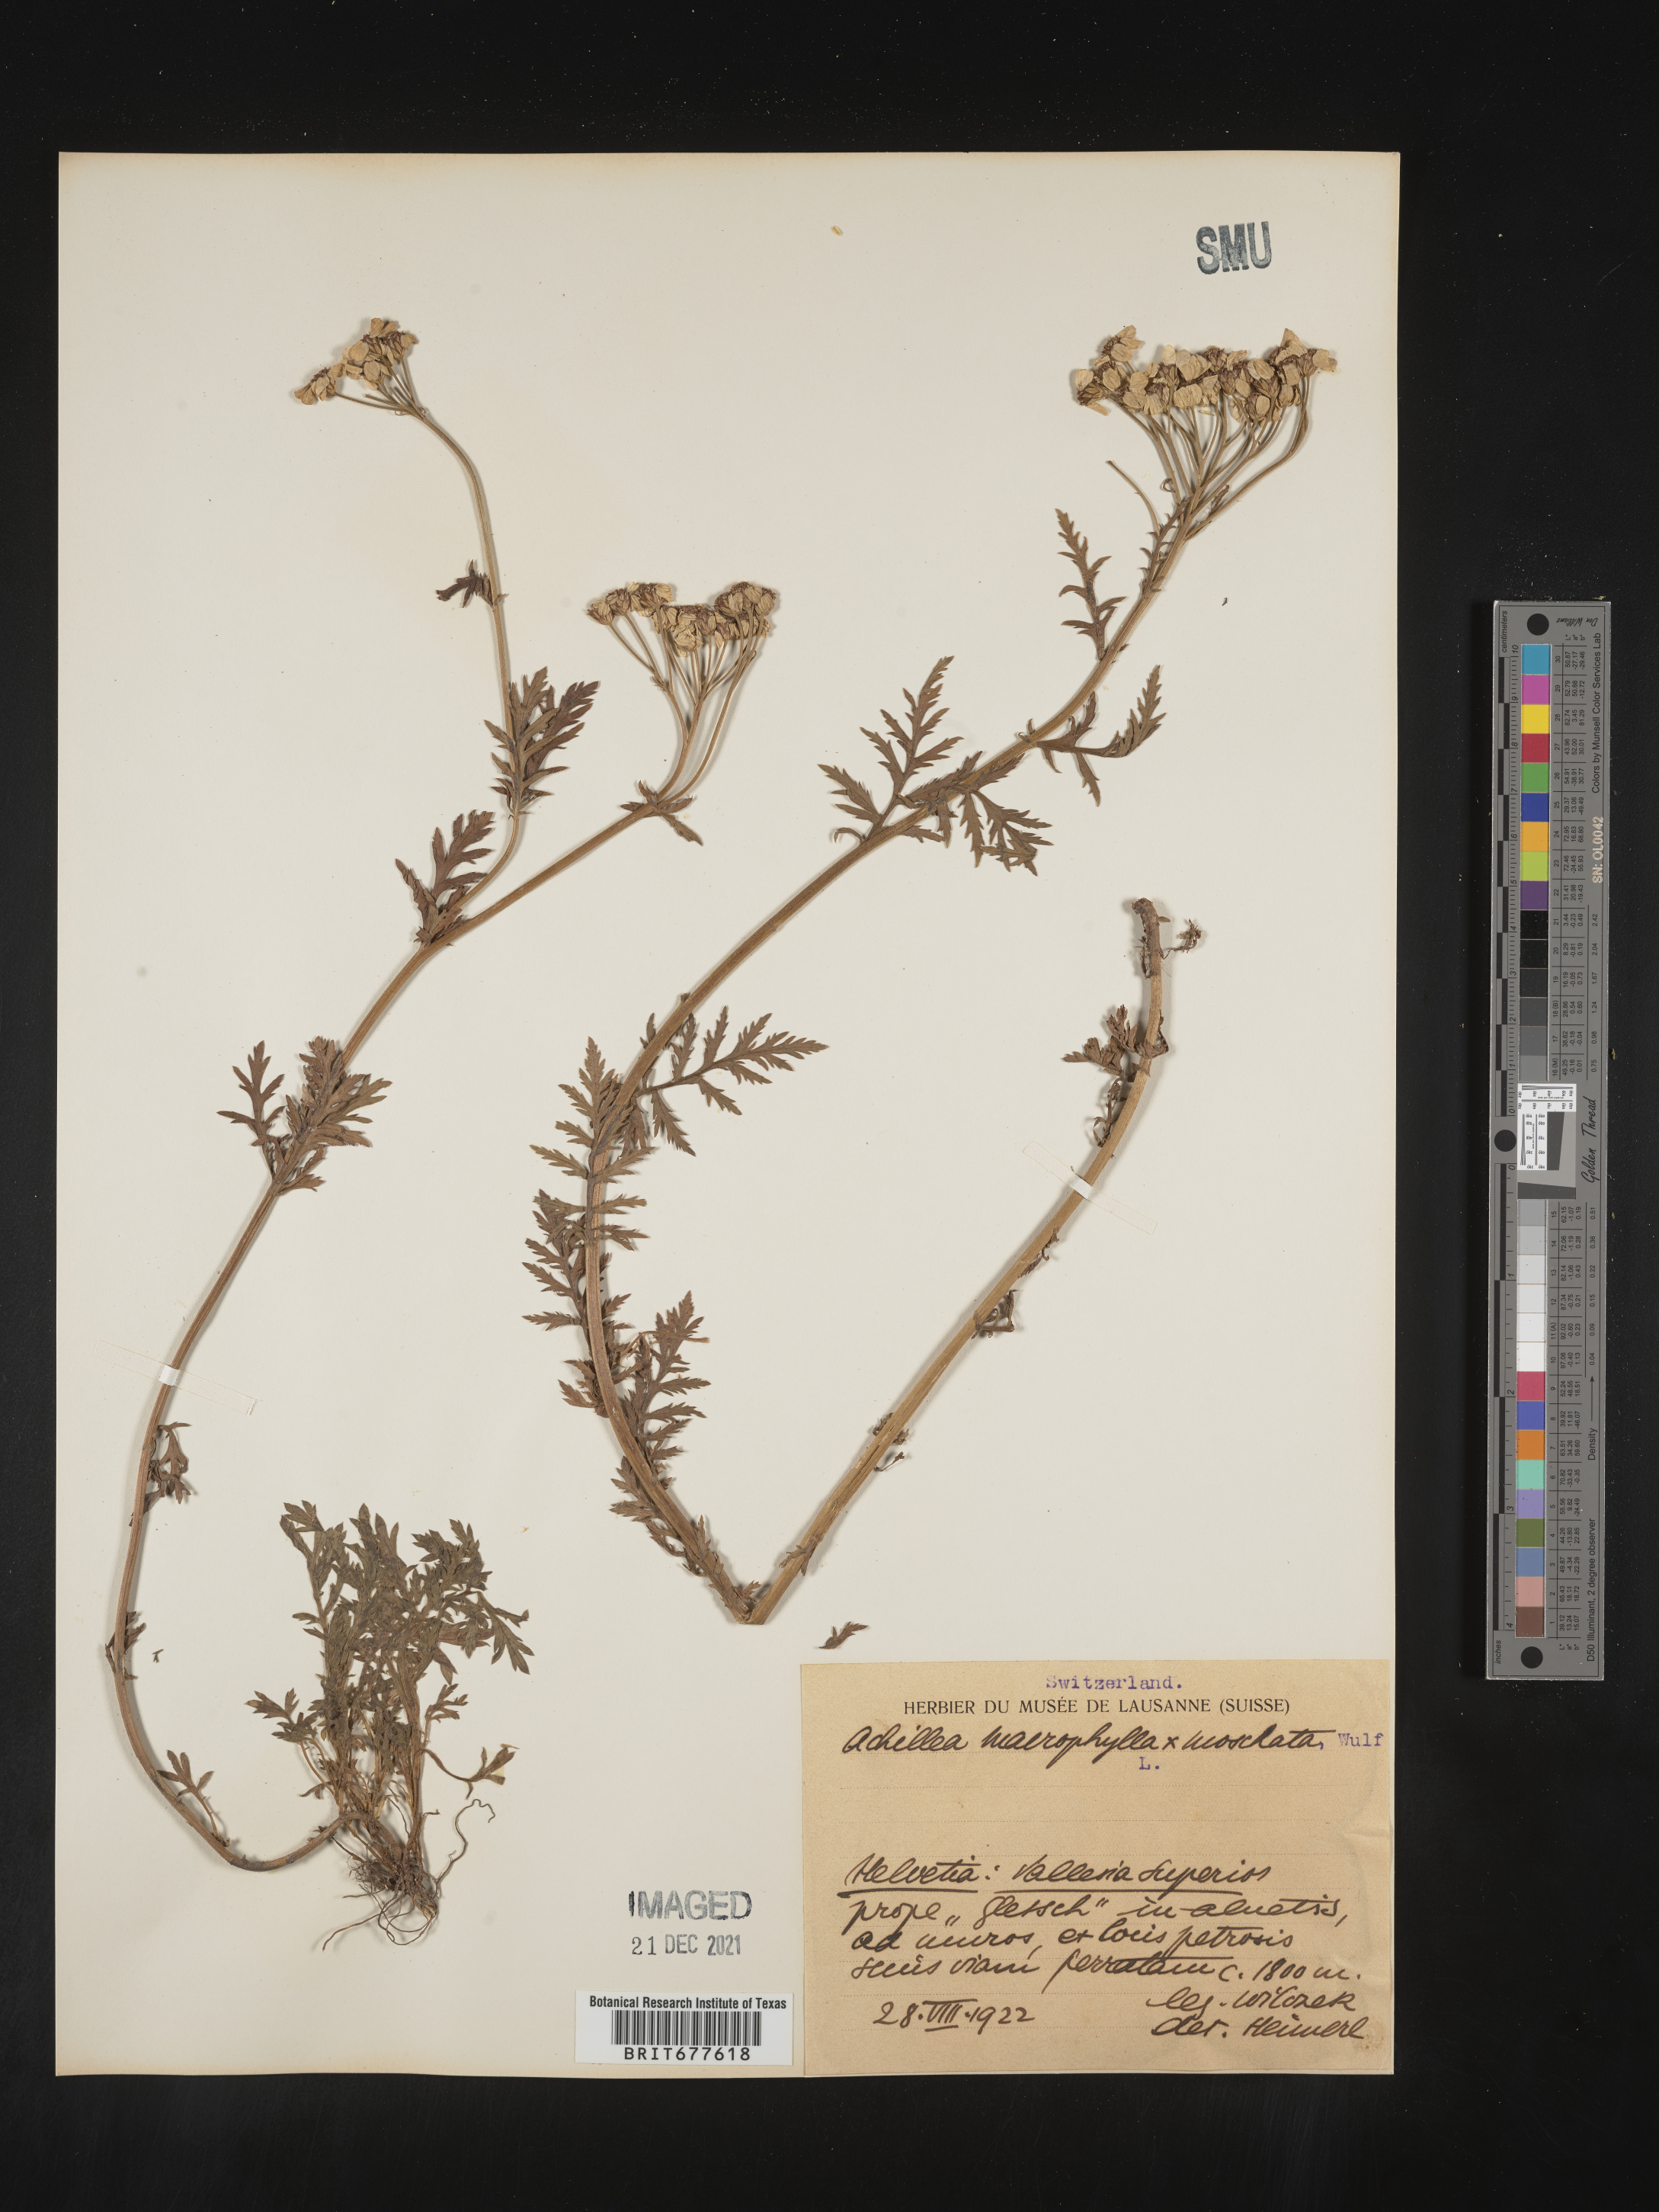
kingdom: Plantae
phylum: Tracheophyta
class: Magnoliopsida
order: Asterales
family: Asteraceae
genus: Achillea
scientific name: Achillea millefolium
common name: Yarrow
